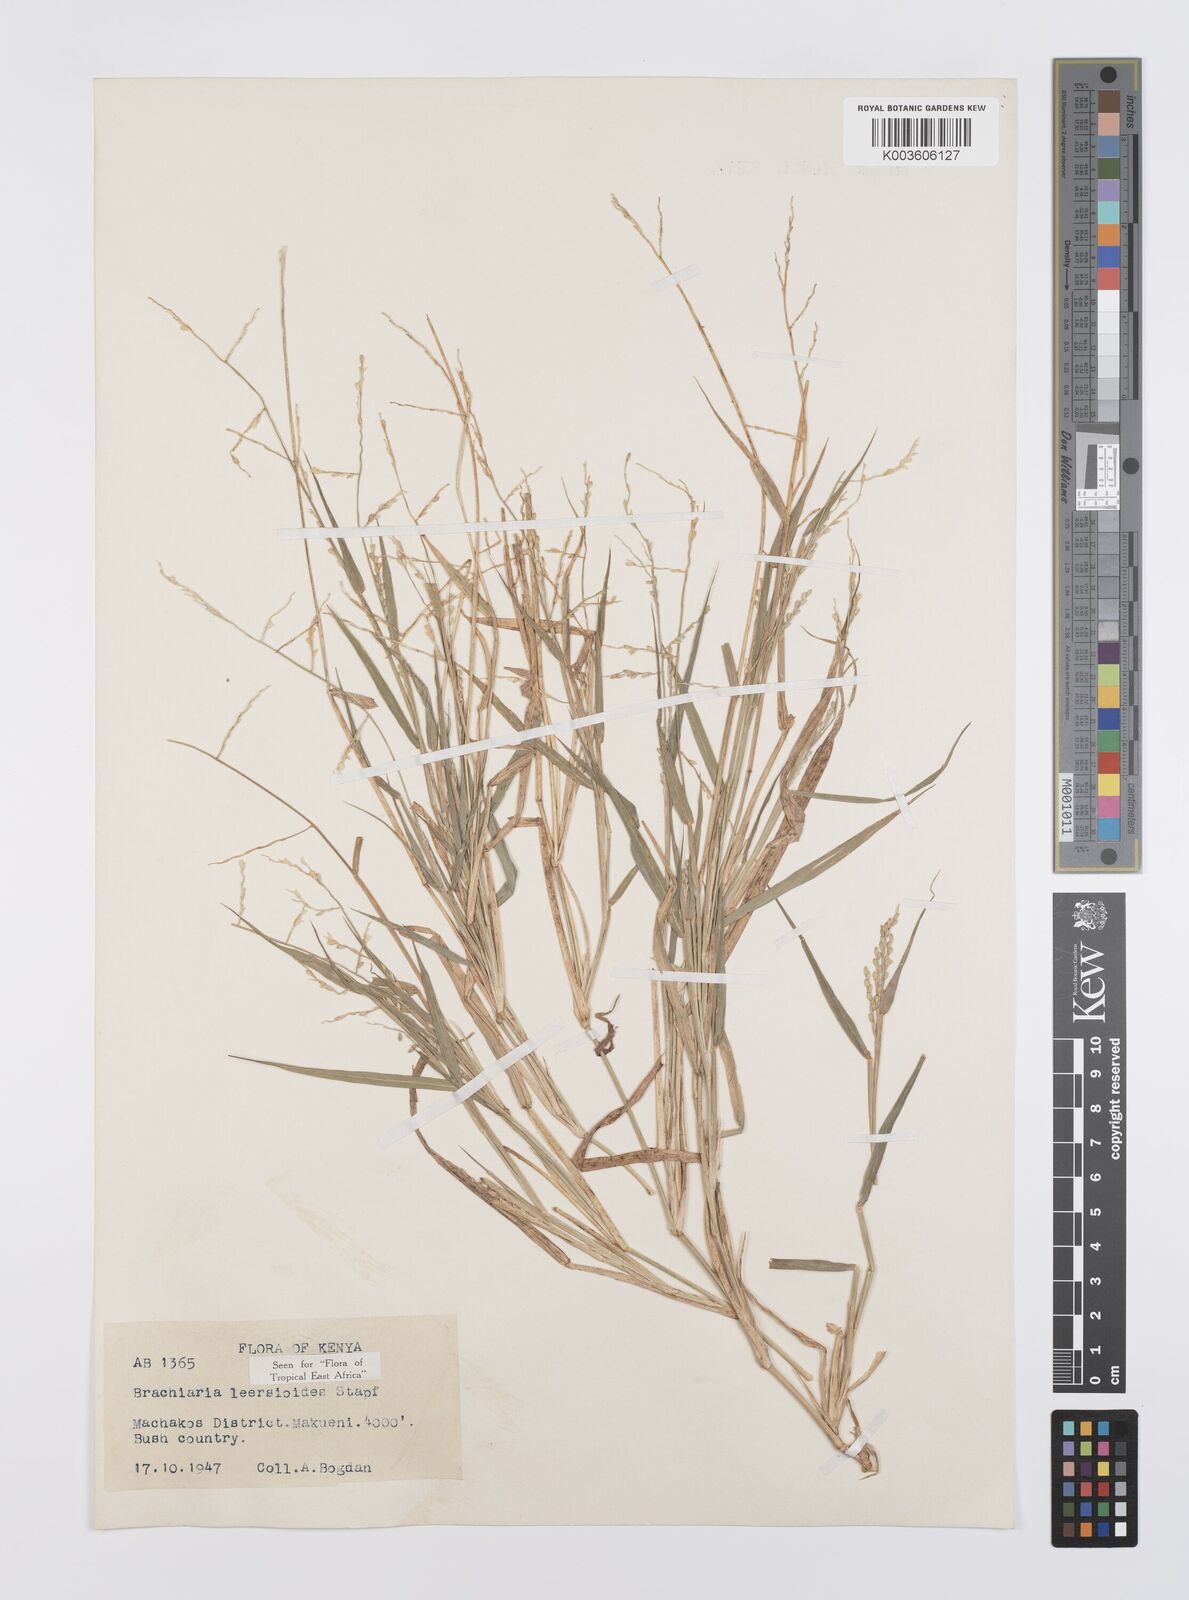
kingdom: Plantae
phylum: Tracheophyta
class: Liliopsida
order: Poales
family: Poaceae
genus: Urochloa
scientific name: Urochloa leersioides
